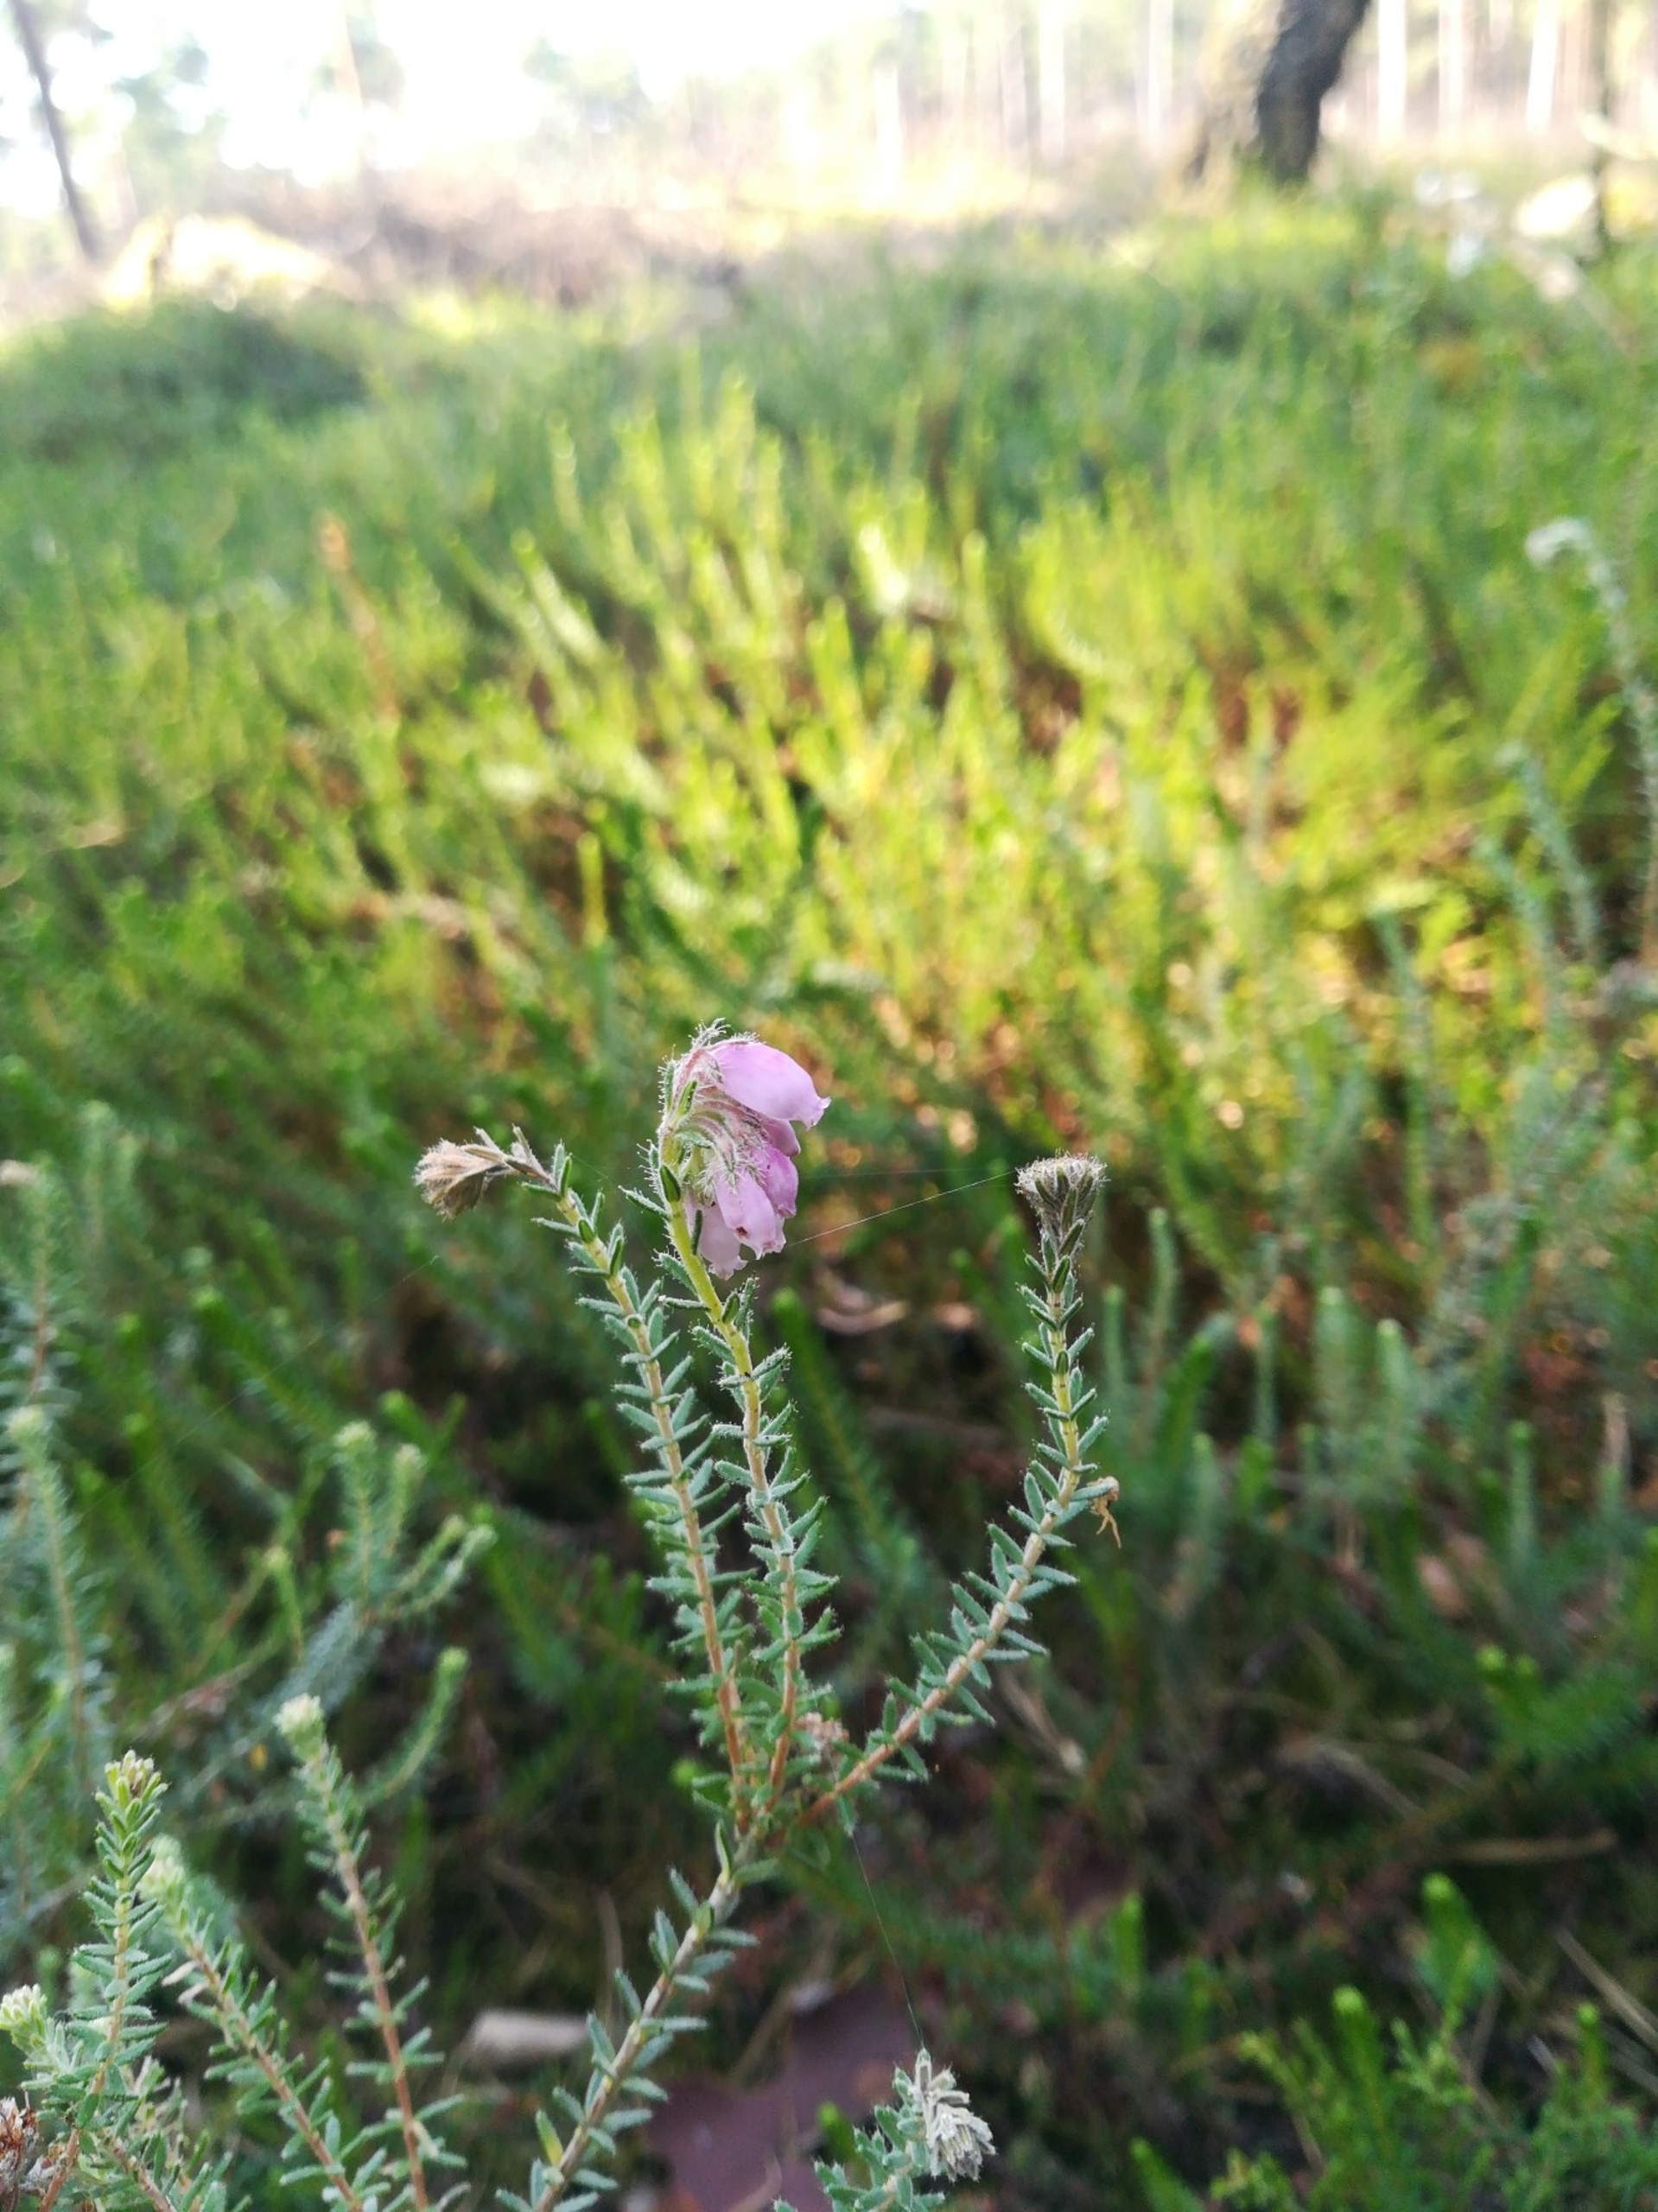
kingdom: Plantae
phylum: Tracheophyta
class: Magnoliopsida
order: Ericales
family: Ericaceae
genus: Erica
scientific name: Erica tetralix
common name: Klokkelyng
